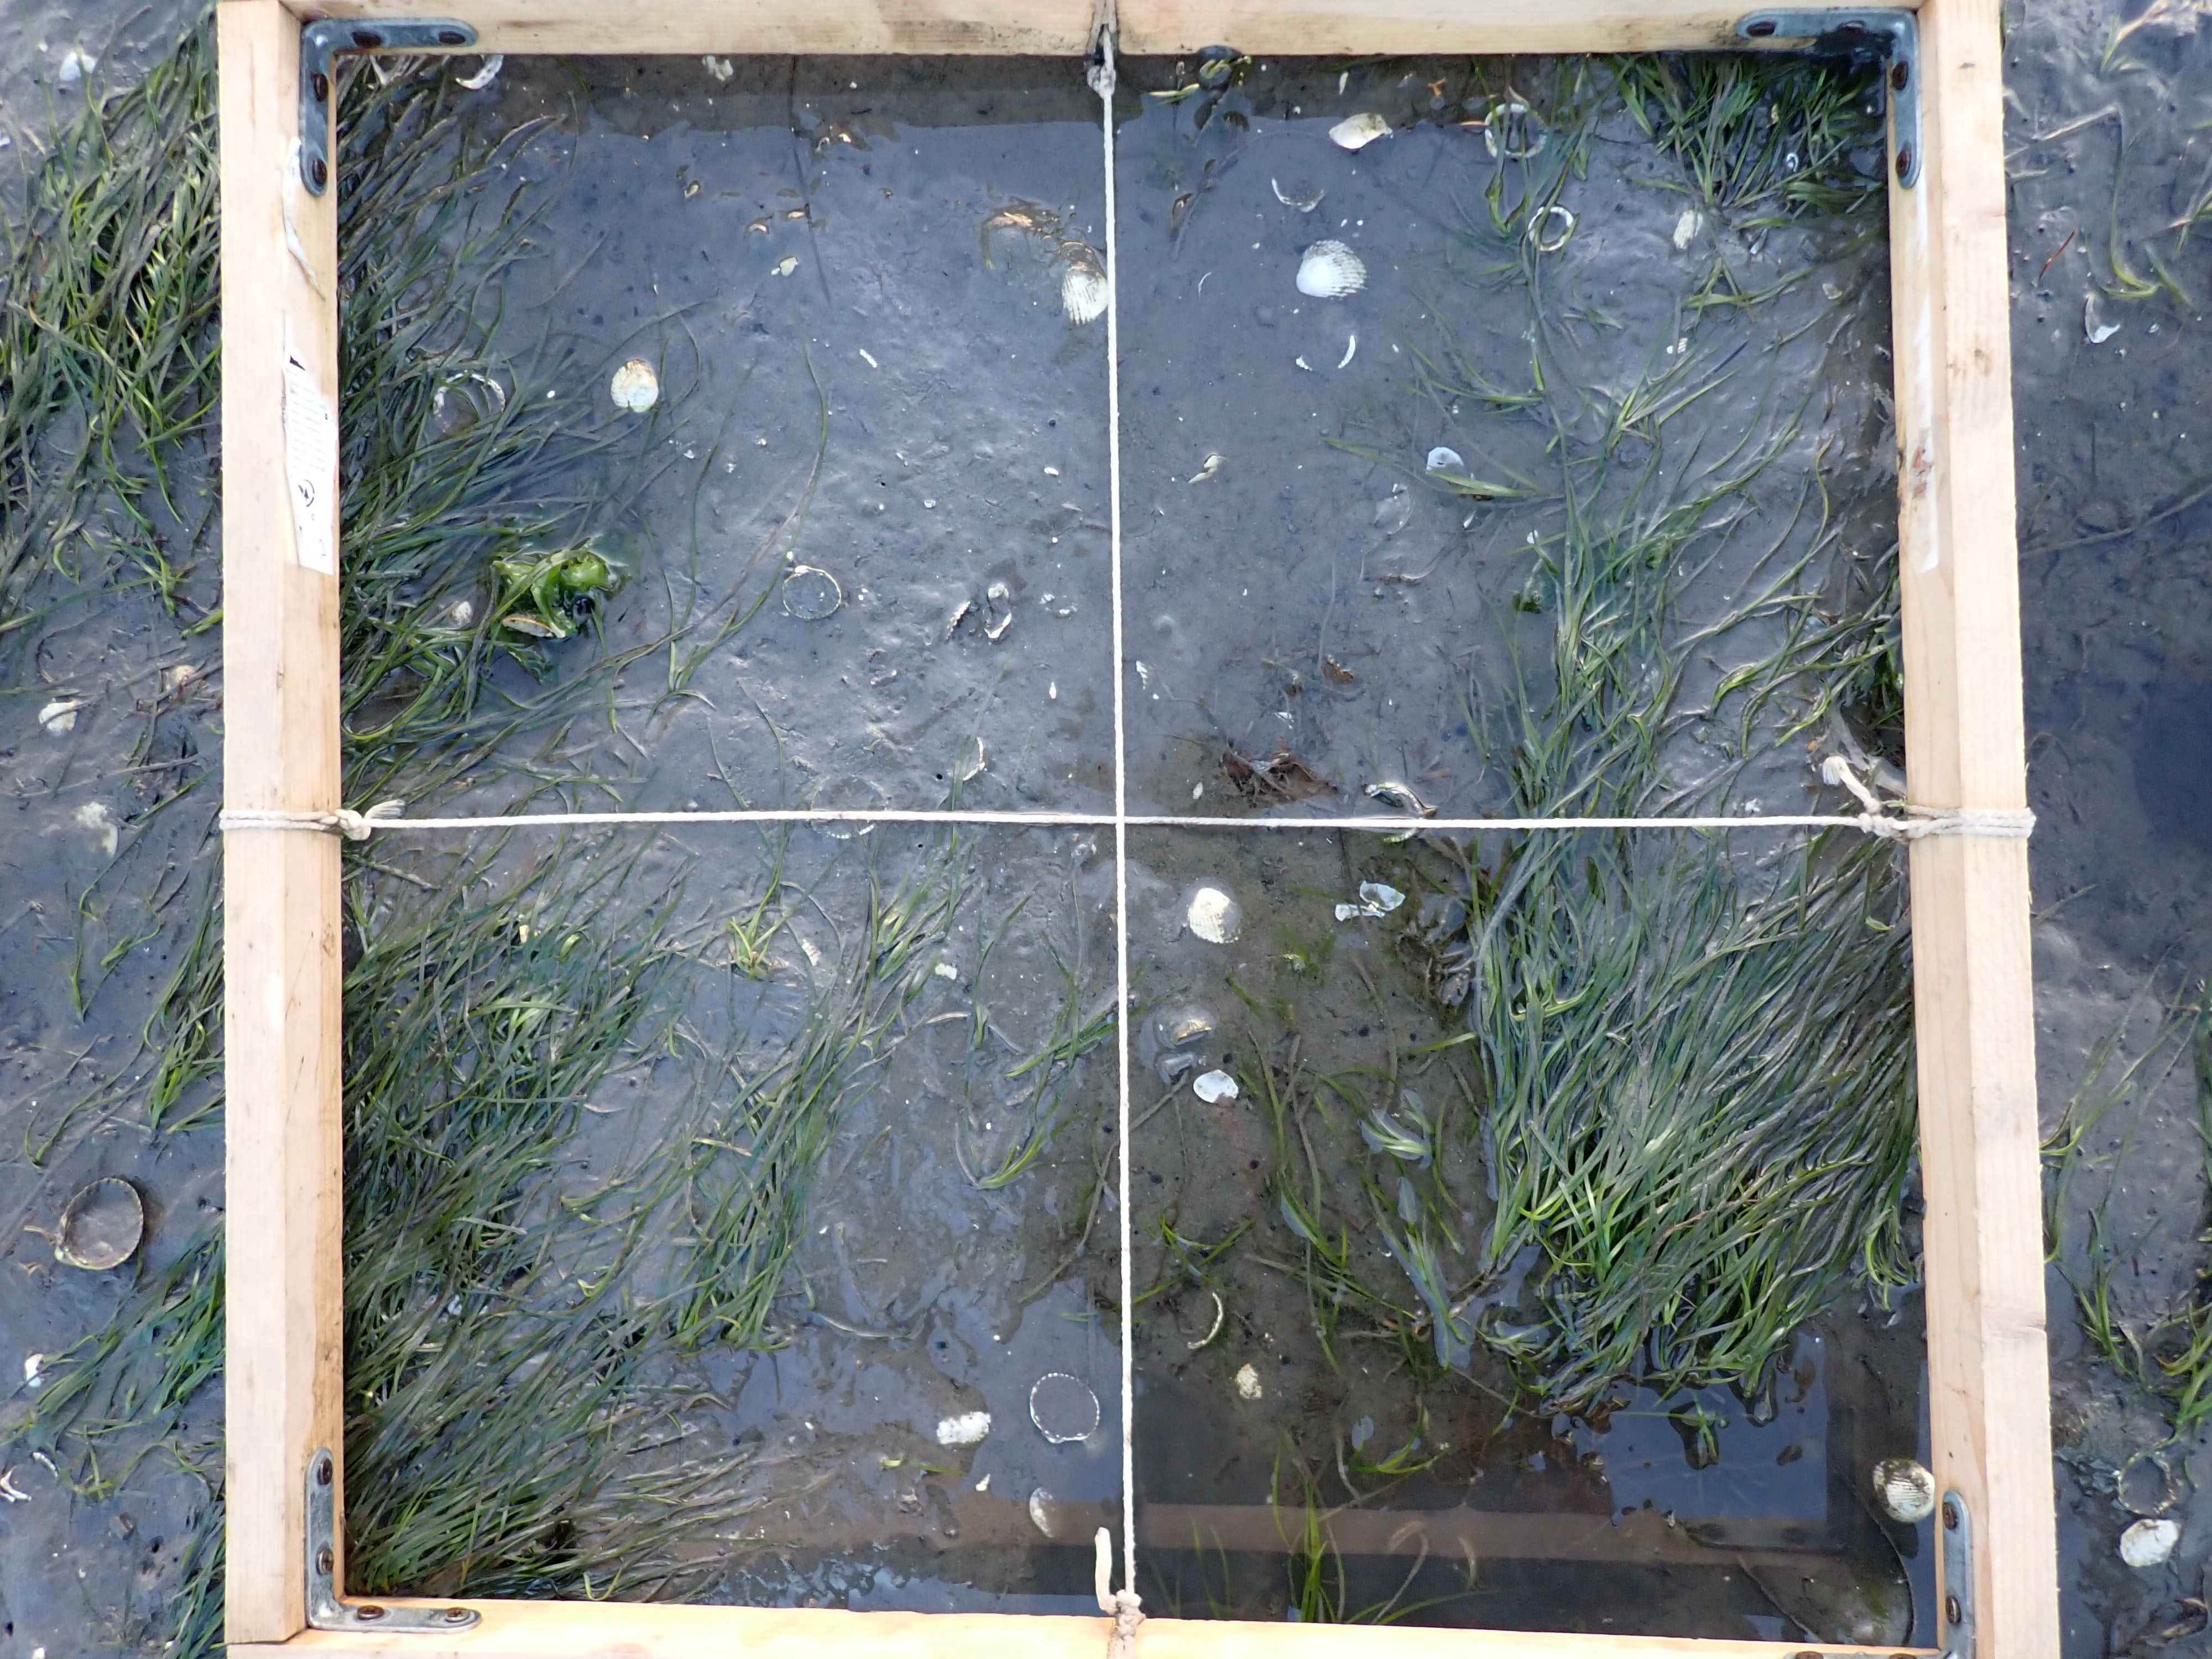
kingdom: Plantae
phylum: Tracheophyta
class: Liliopsida
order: Alismatales
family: Zosteraceae
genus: Zostera
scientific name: Zostera noltii
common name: Dwarf eelgrass
